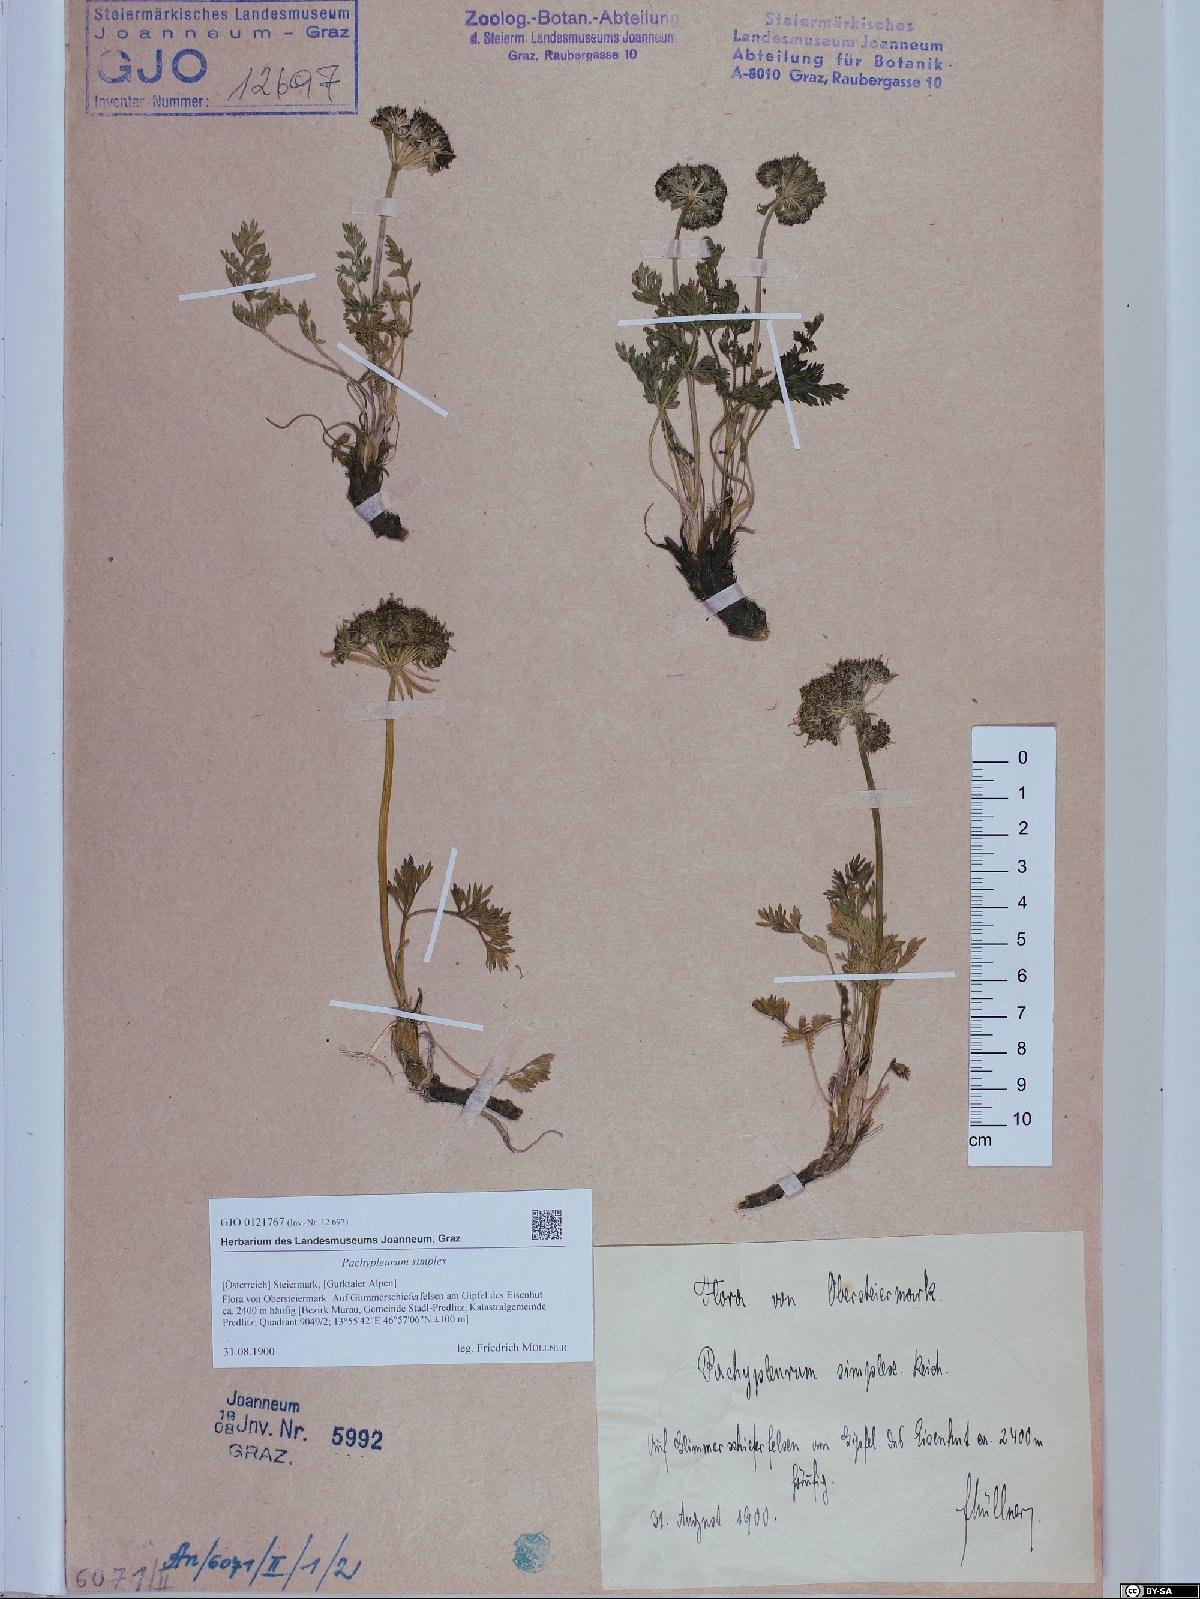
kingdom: Plantae
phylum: Tracheophyta
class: Magnoliopsida
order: Apiales
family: Apiaceae
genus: Pachypleurum
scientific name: Pachypleurum mutellinoides
